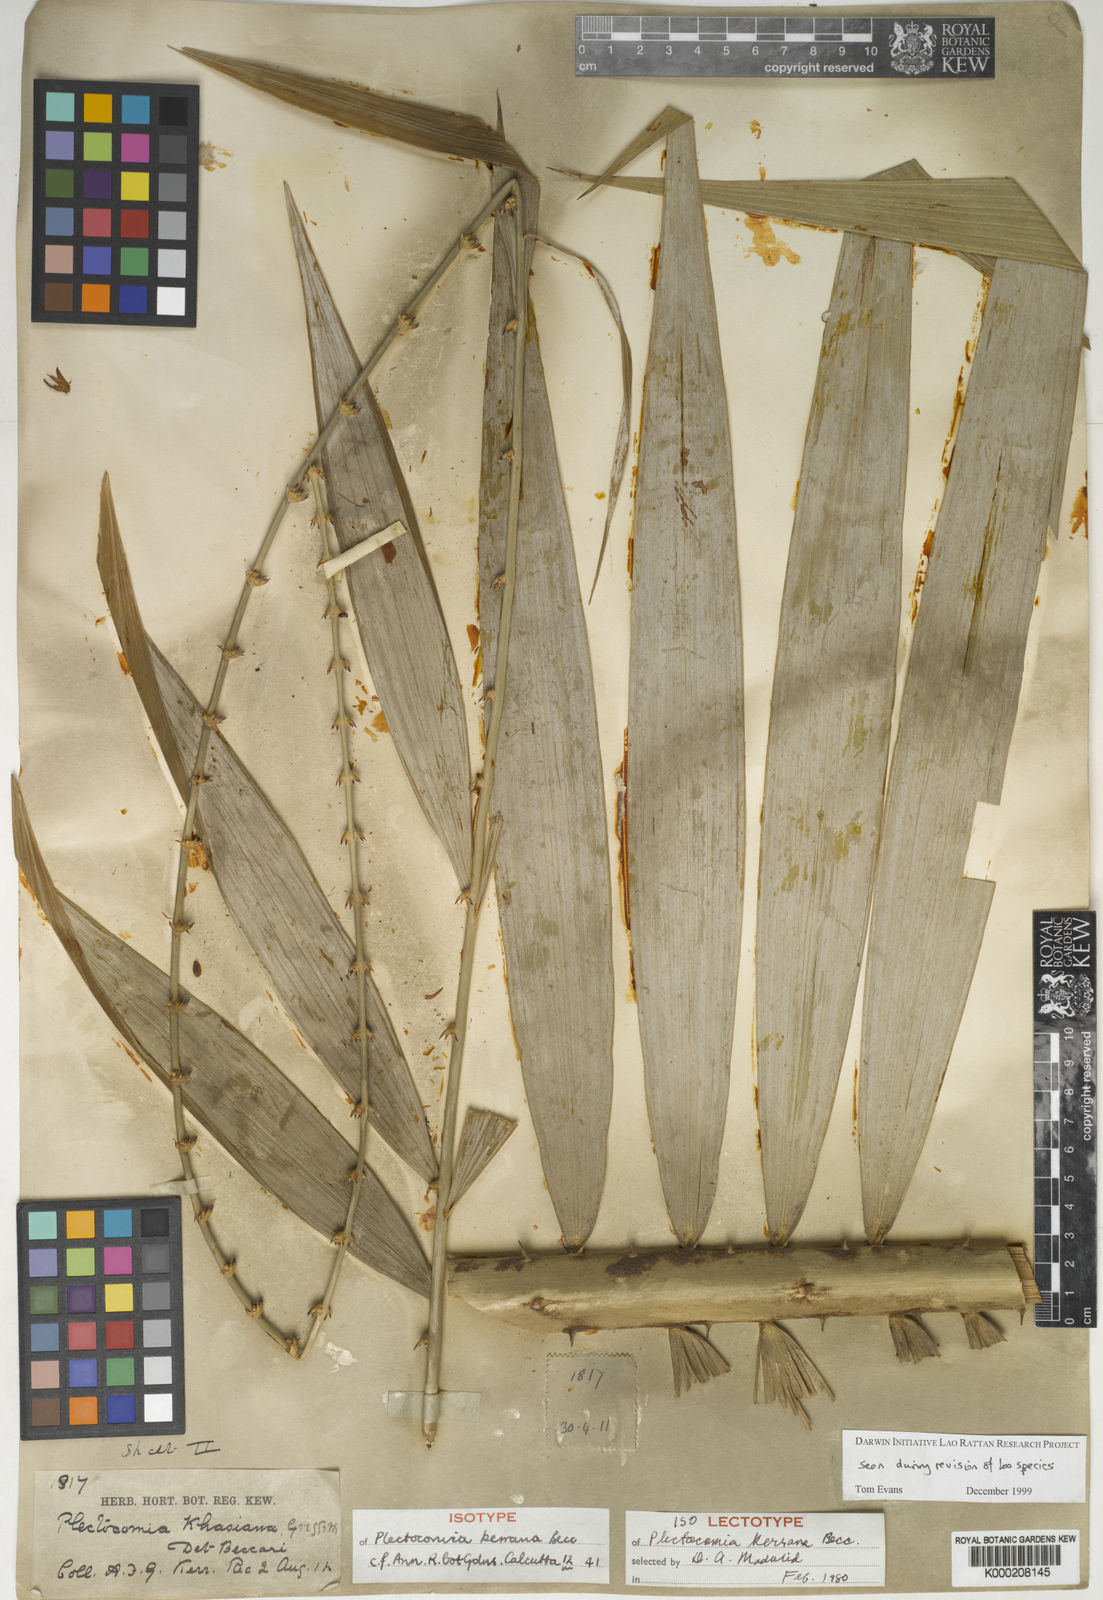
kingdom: Plantae
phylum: Tracheophyta
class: Liliopsida
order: Arecales
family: Arecaceae
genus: Plectocomia
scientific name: Plectocomia pierreana
